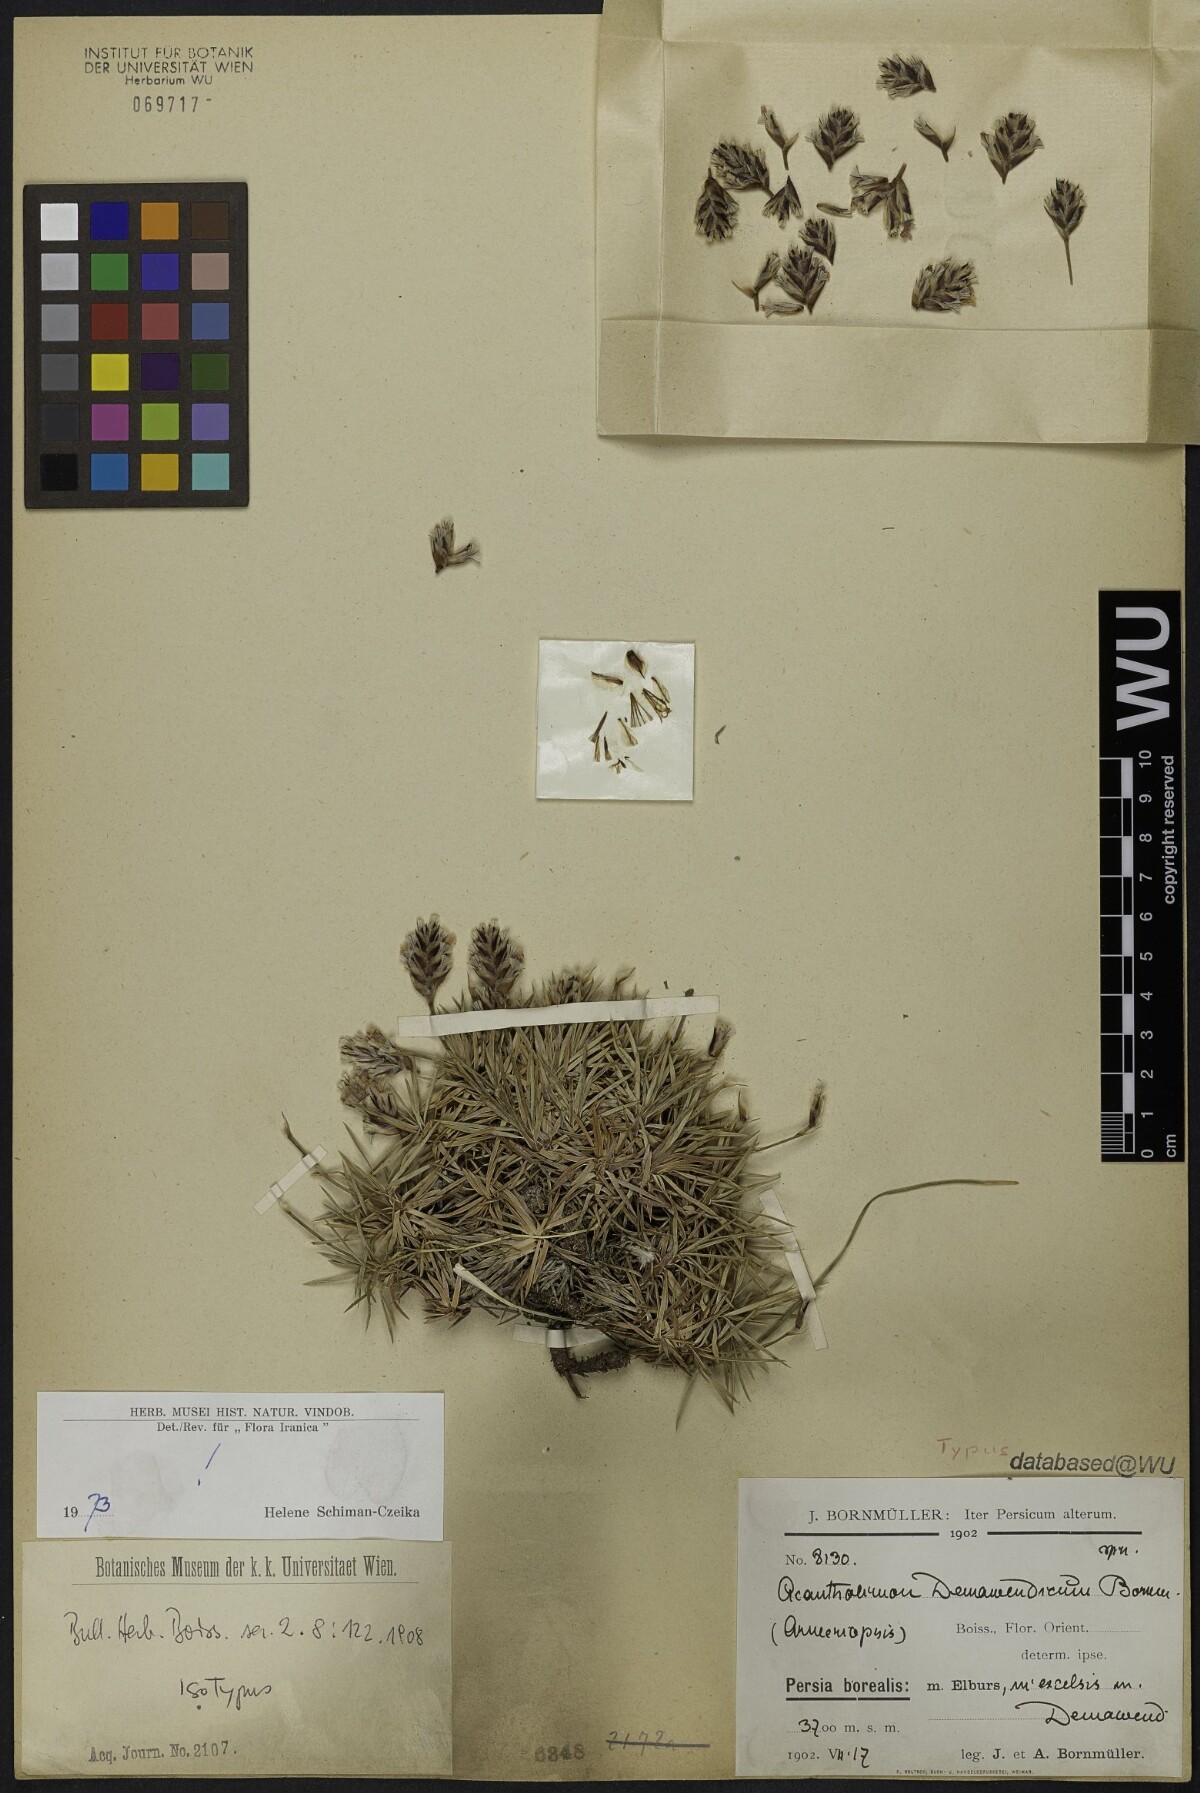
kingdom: Plantae
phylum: Tracheophyta
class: Magnoliopsida
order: Caryophyllales
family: Plumbaginaceae
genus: Acantholimon
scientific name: Acantholimon demavendicum
